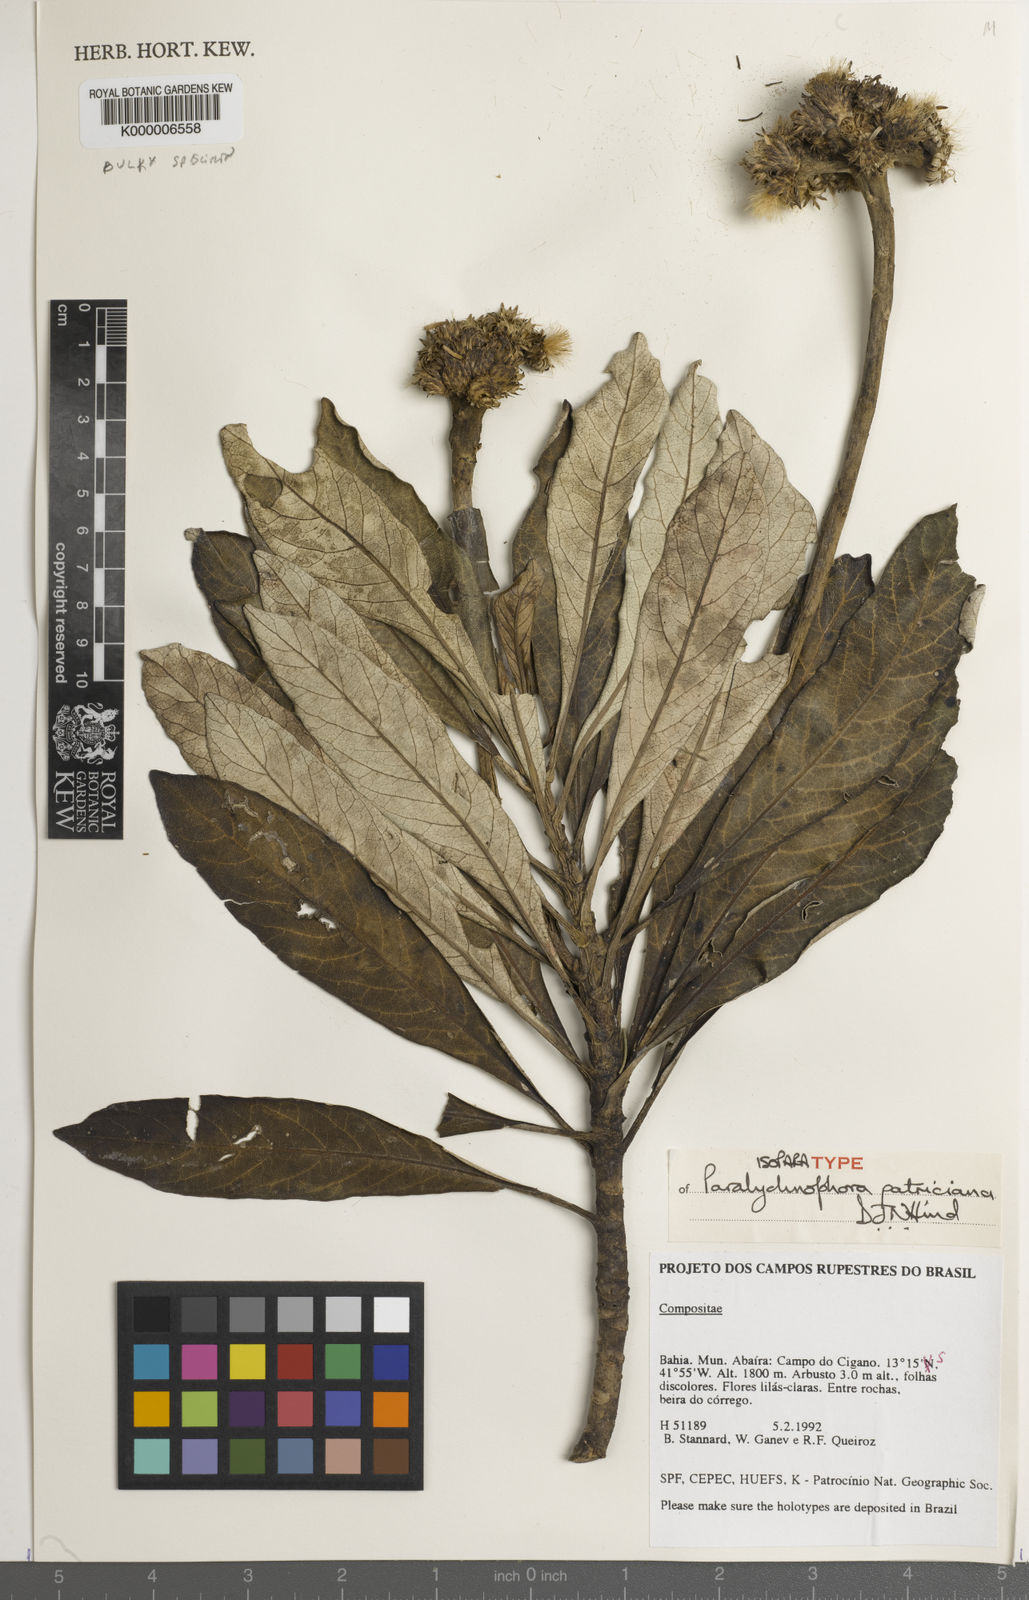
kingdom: Plantae
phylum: Tracheophyta
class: Magnoliopsida
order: Asterales
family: Asteraceae
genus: Paralychnophora
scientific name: Paralychnophora patriciana
